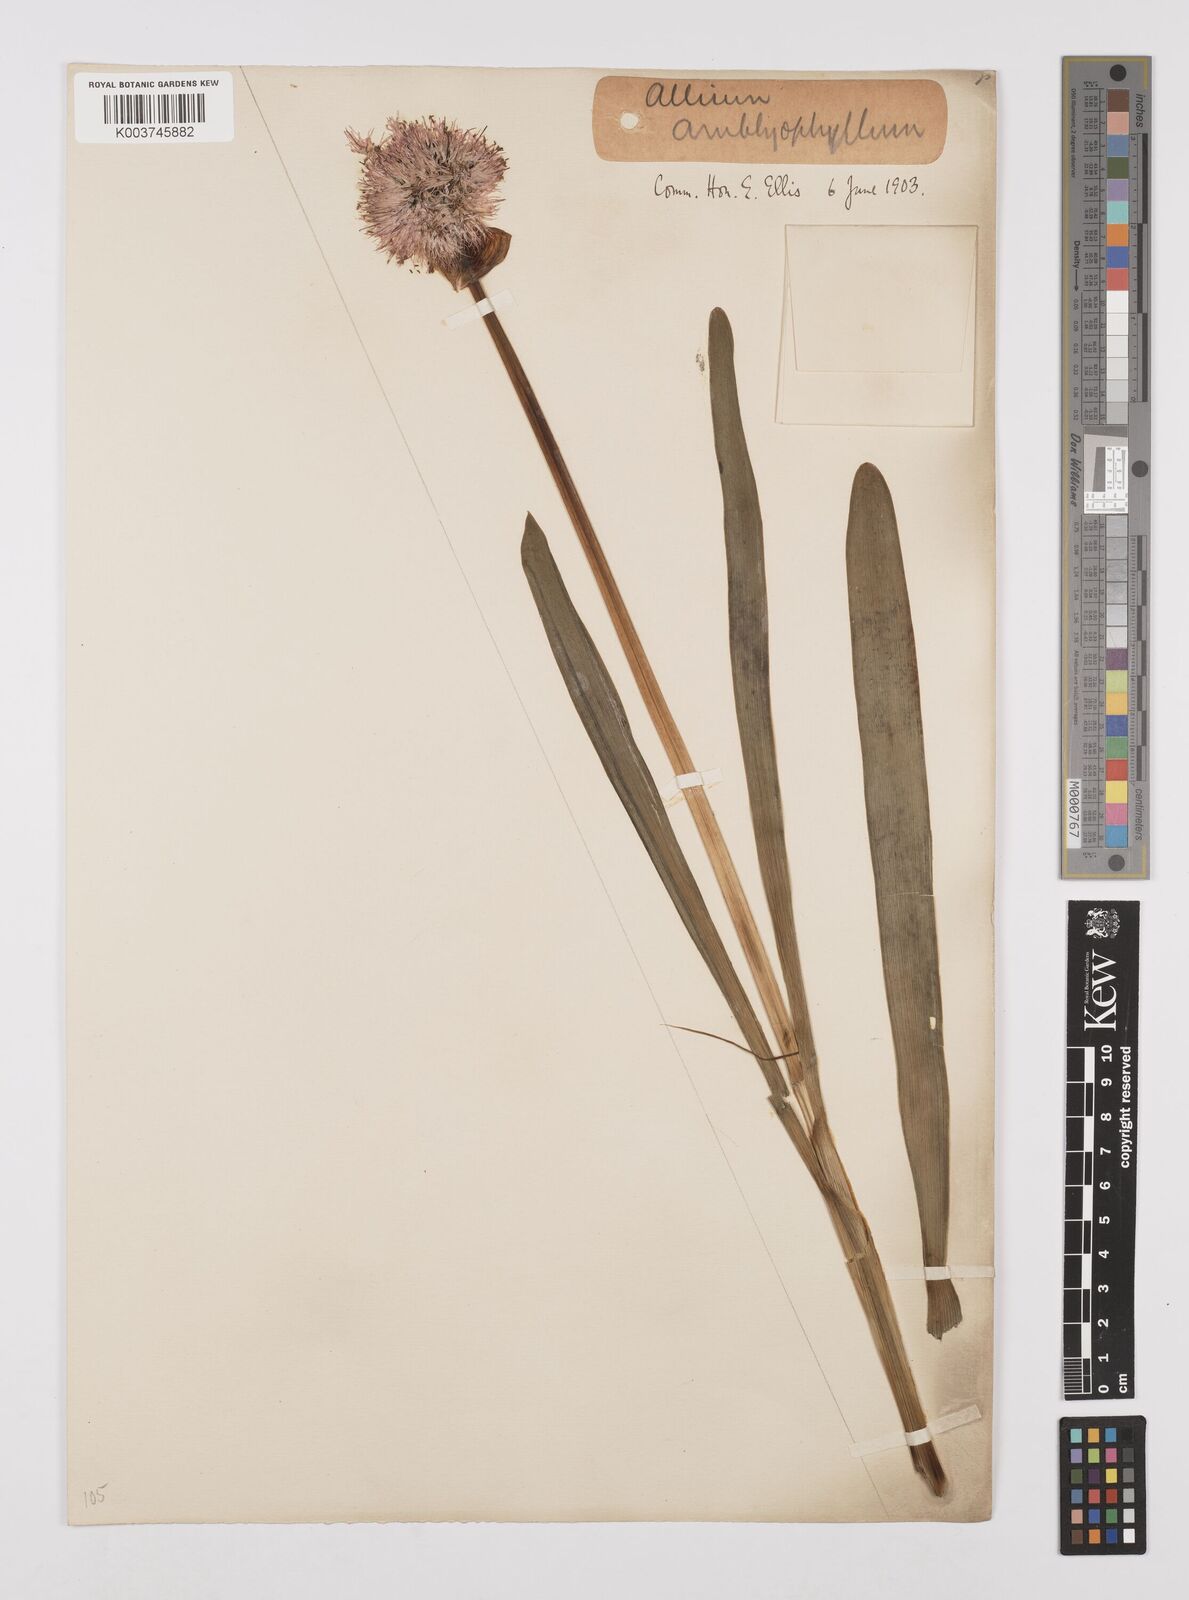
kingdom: Plantae
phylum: Tracheophyta
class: Liliopsida
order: Asparagales
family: Amaryllidaceae
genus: Allium
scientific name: Allium platyspathum
